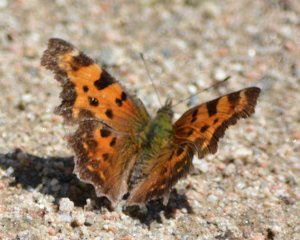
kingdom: Animalia
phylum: Arthropoda
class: Insecta
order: Lepidoptera
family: Nymphalidae
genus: Polygonia
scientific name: Polygonia faunus
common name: Green Comma
